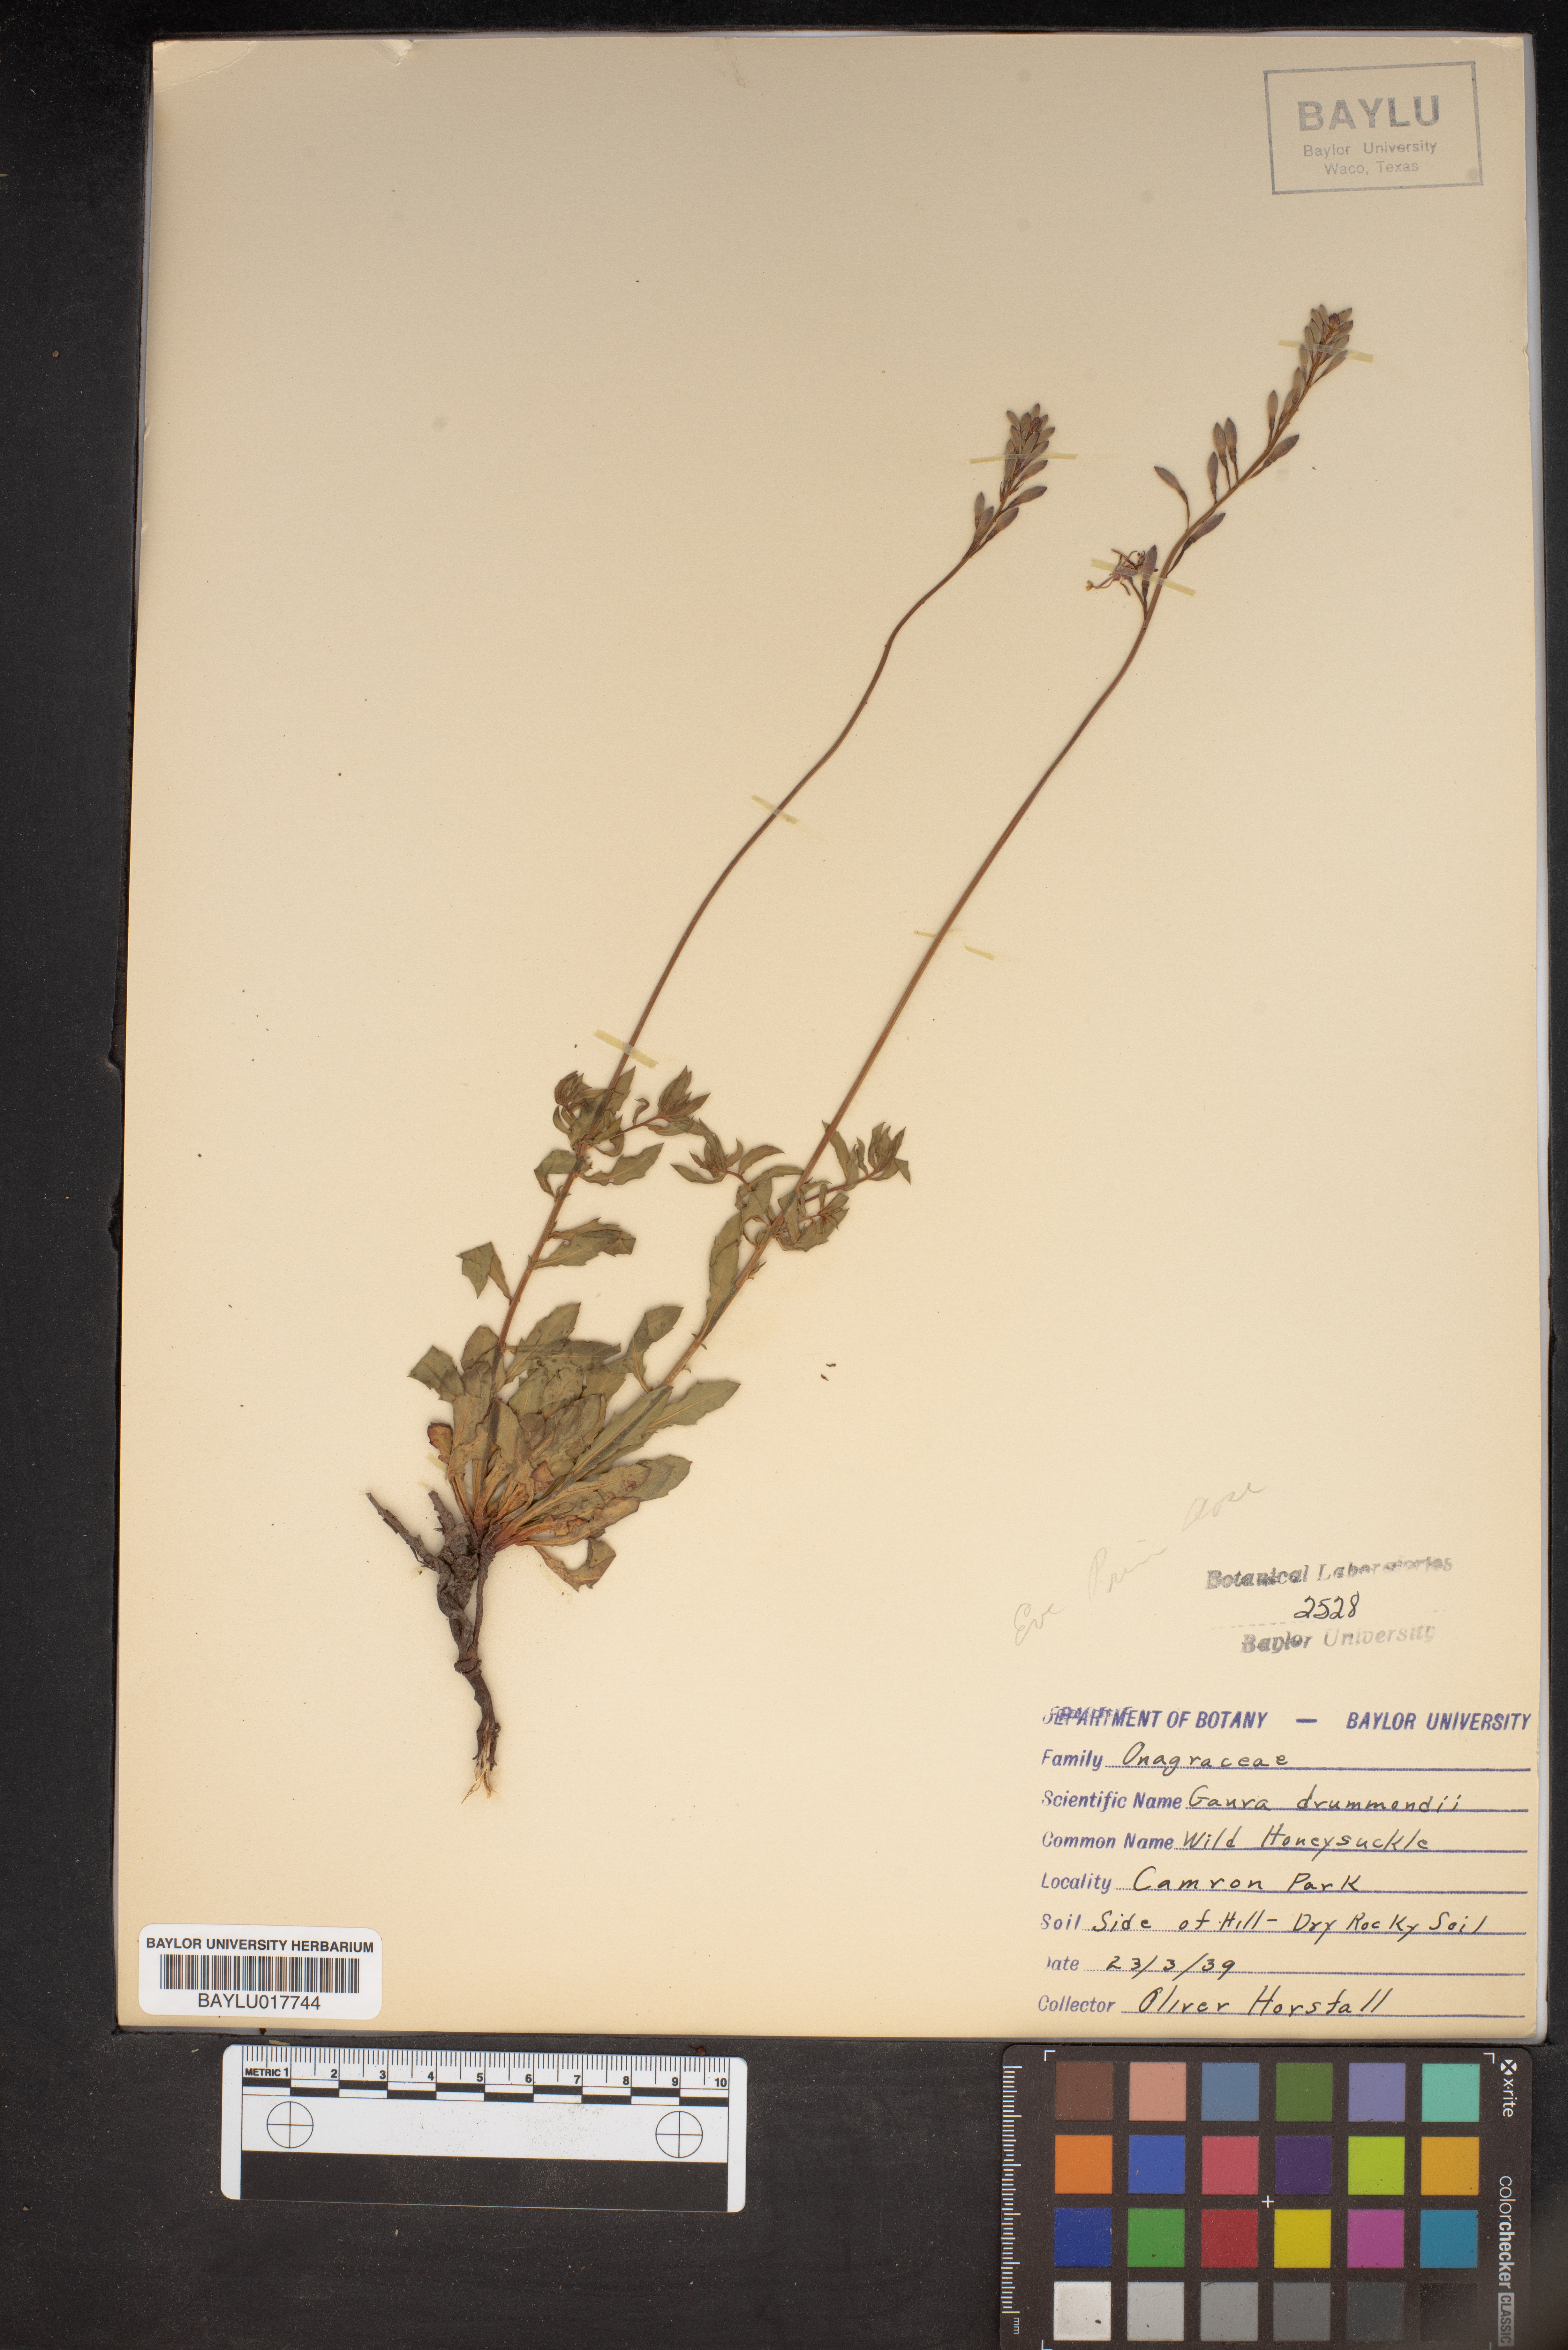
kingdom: Plantae
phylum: Tracheophyta
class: Magnoliopsida
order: Myrtales
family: Onagraceae
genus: Oenothera
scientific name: Oenothera hispida
